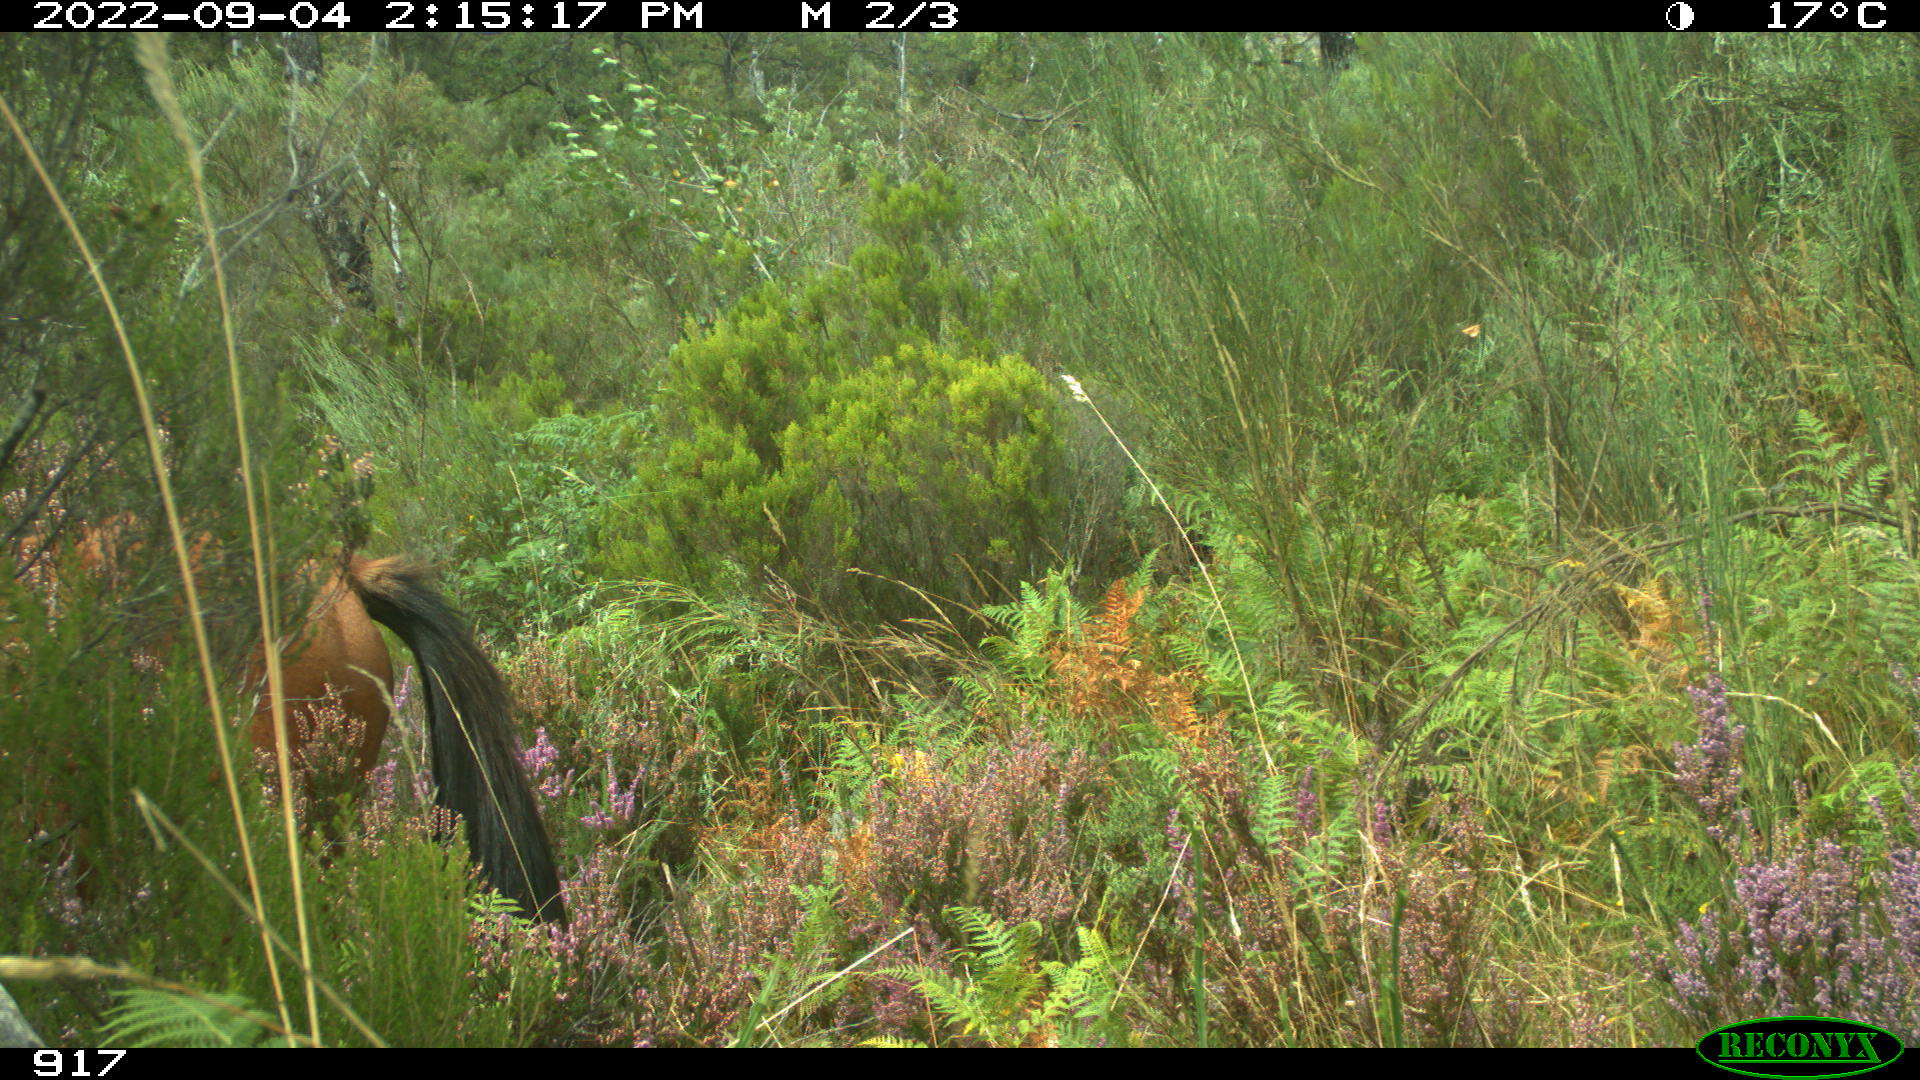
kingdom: Animalia
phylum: Chordata
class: Mammalia
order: Perissodactyla
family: Equidae
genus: Equus
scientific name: Equus caballus
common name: Horse
